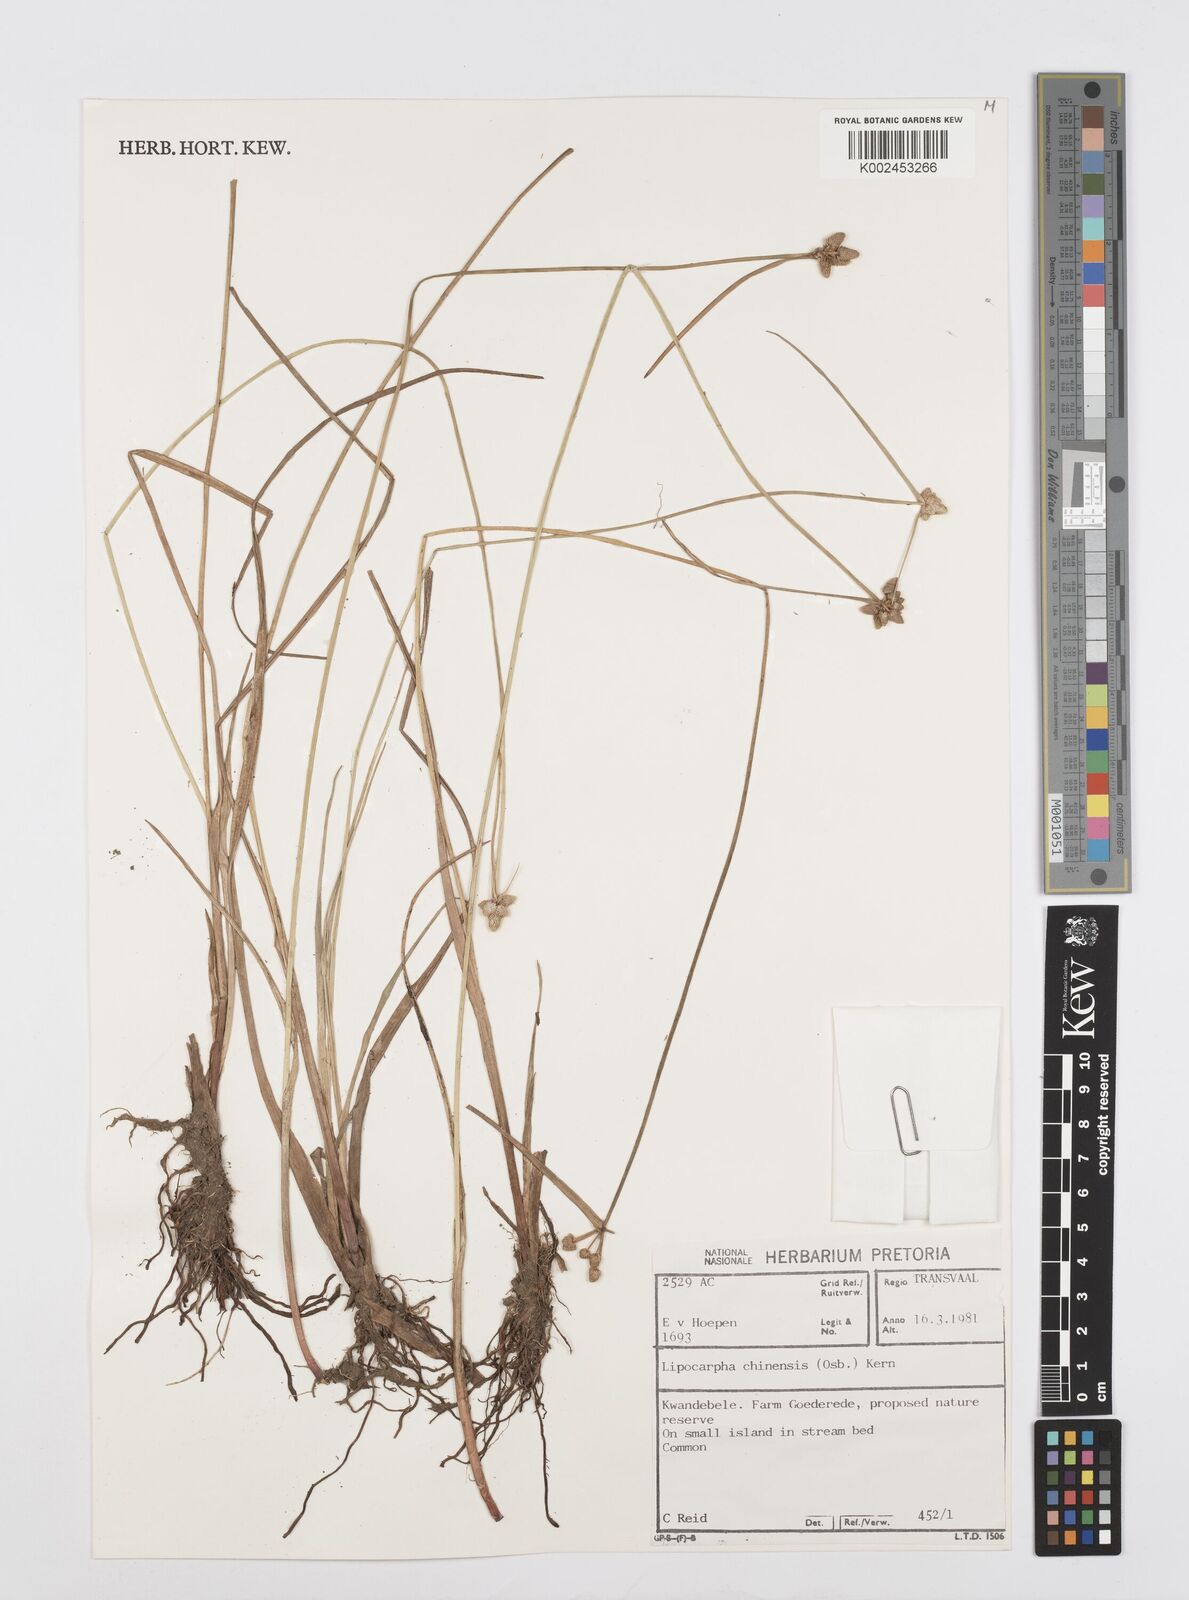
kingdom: Plantae
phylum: Tracheophyta
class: Liliopsida
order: Poales
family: Cyperaceae
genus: Cyperus
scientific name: Cyperus albescens
